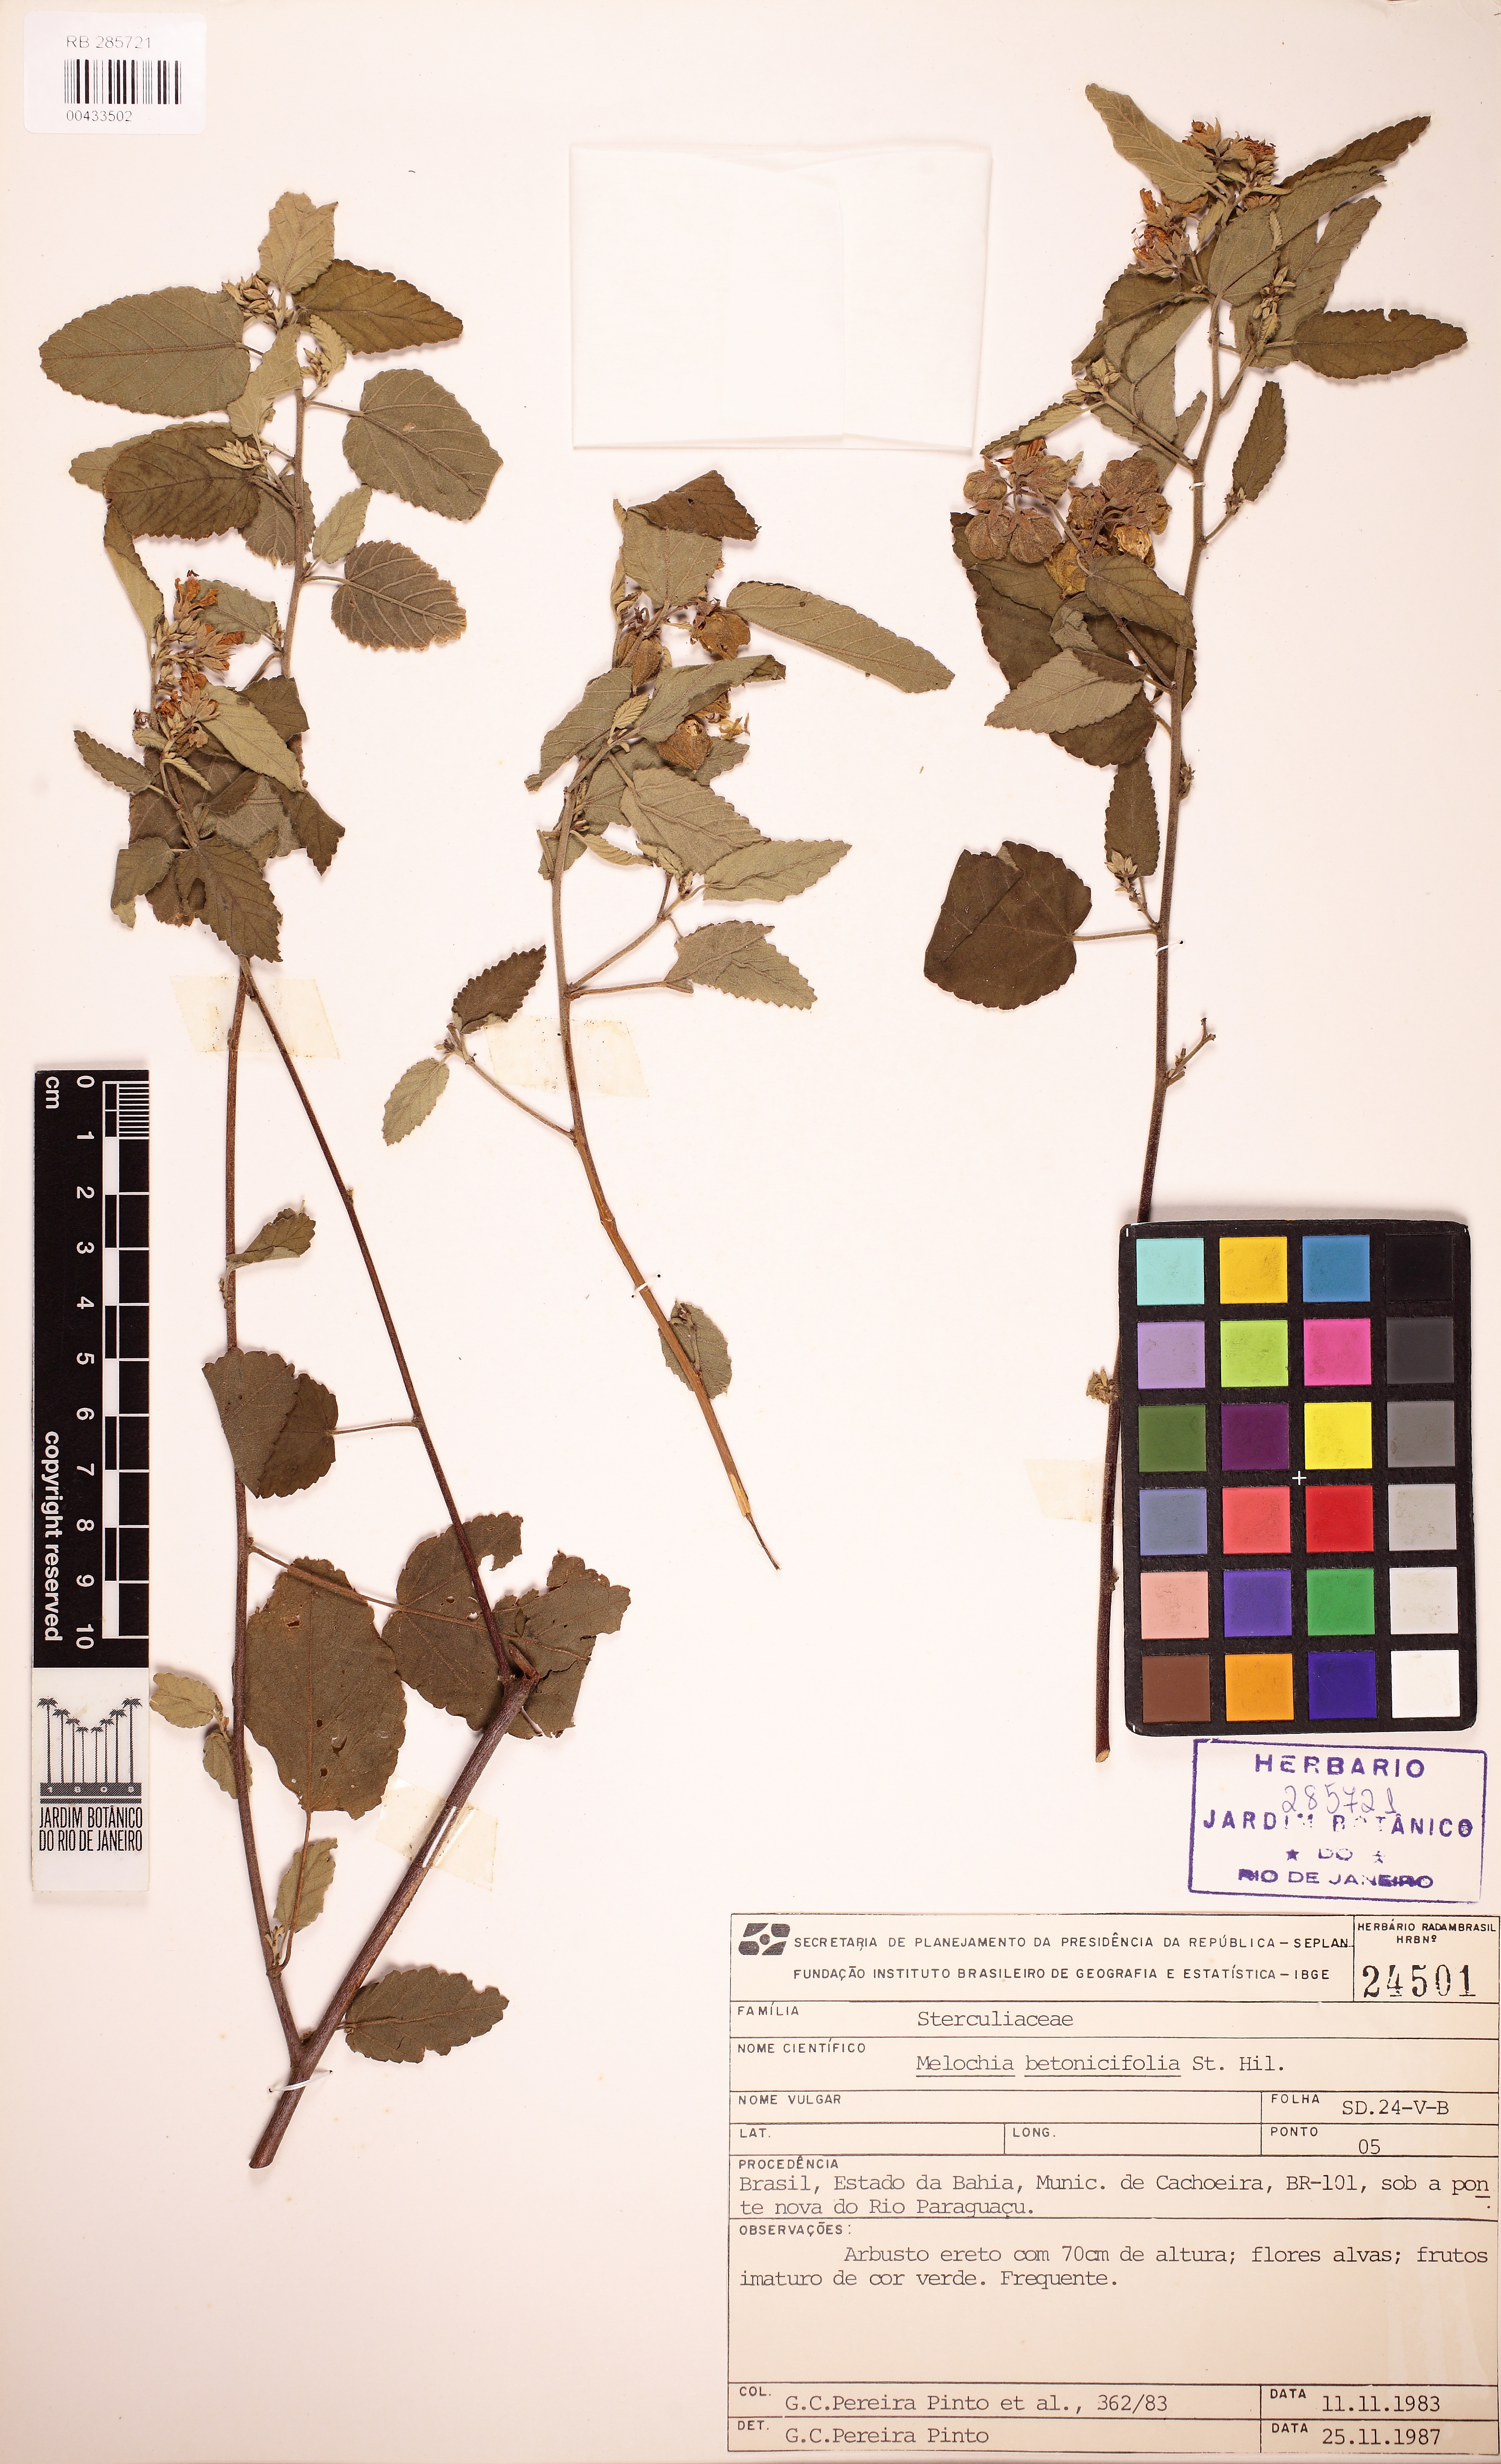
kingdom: Plantae
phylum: Tracheophyta
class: Magnoliopsida
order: Malvales
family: Malvaceae
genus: Melochia
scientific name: Melochia illicioides
